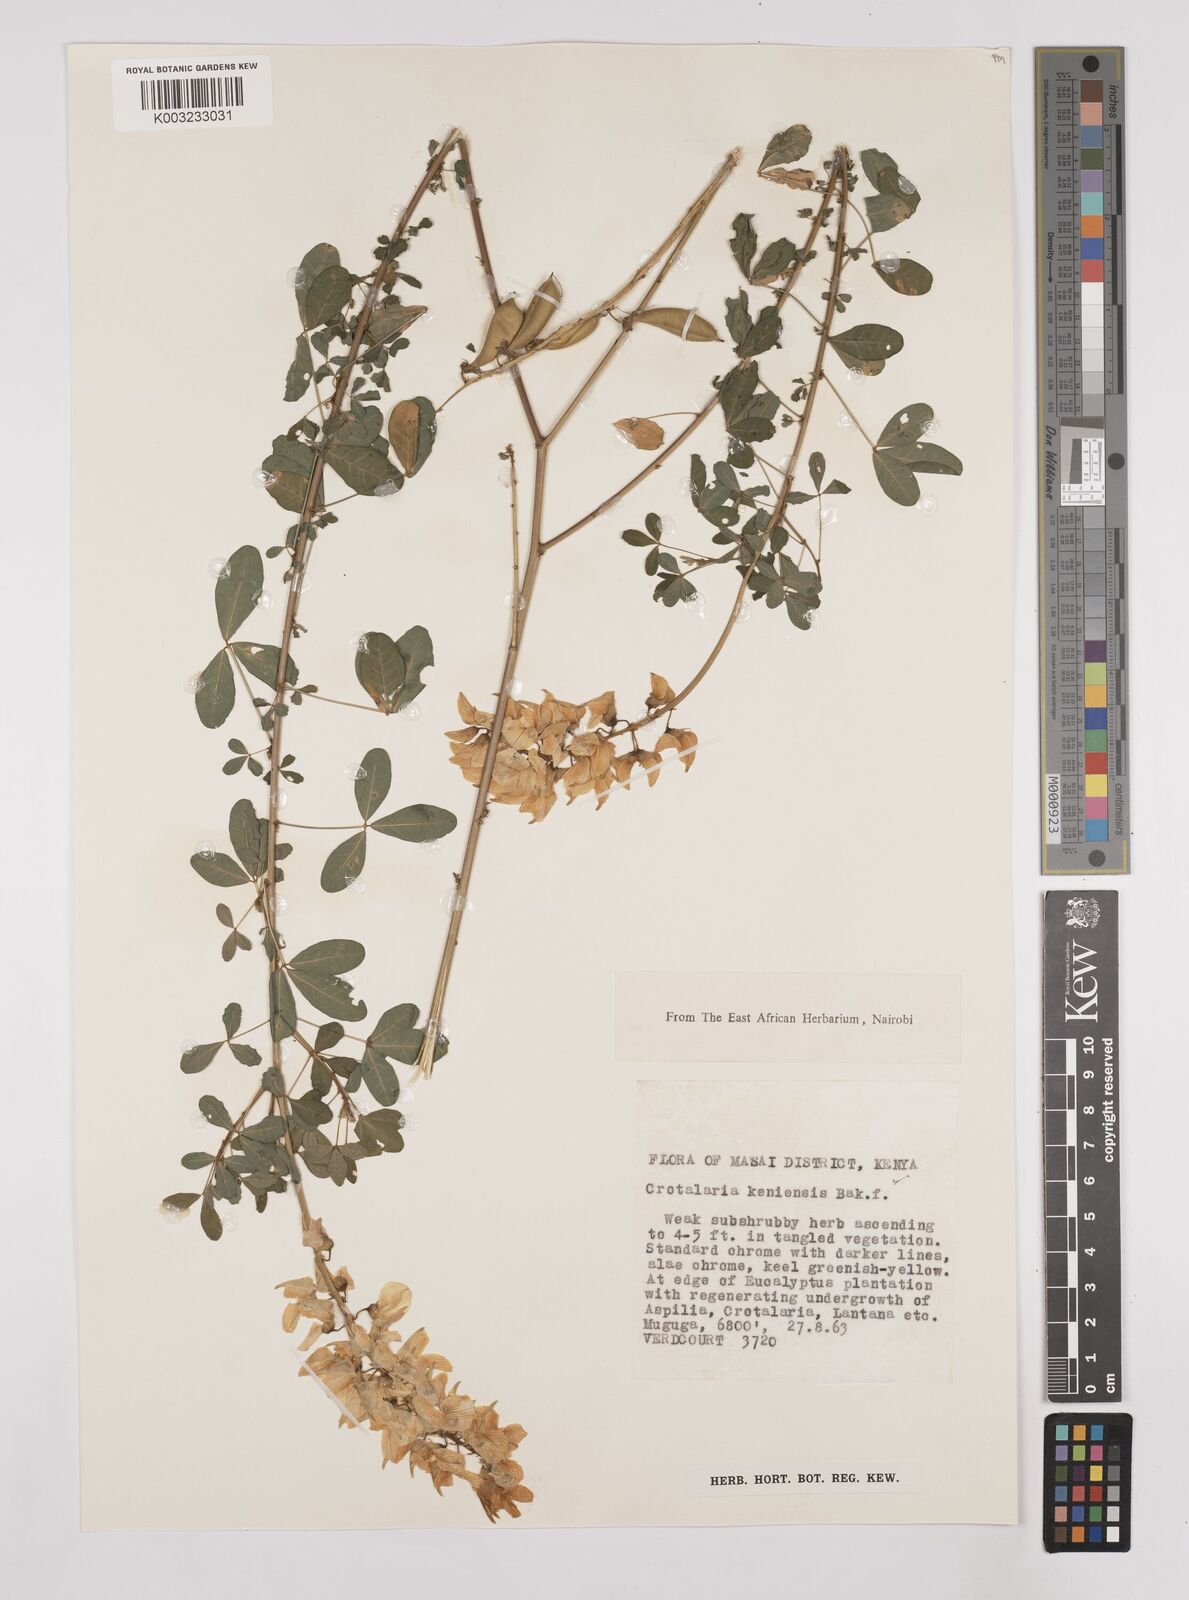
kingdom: Plantae
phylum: Tracheophyta
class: Magnoliopsida
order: Fabales
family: Fabaceae
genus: Crotalaria
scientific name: Crotalaria keniensis
